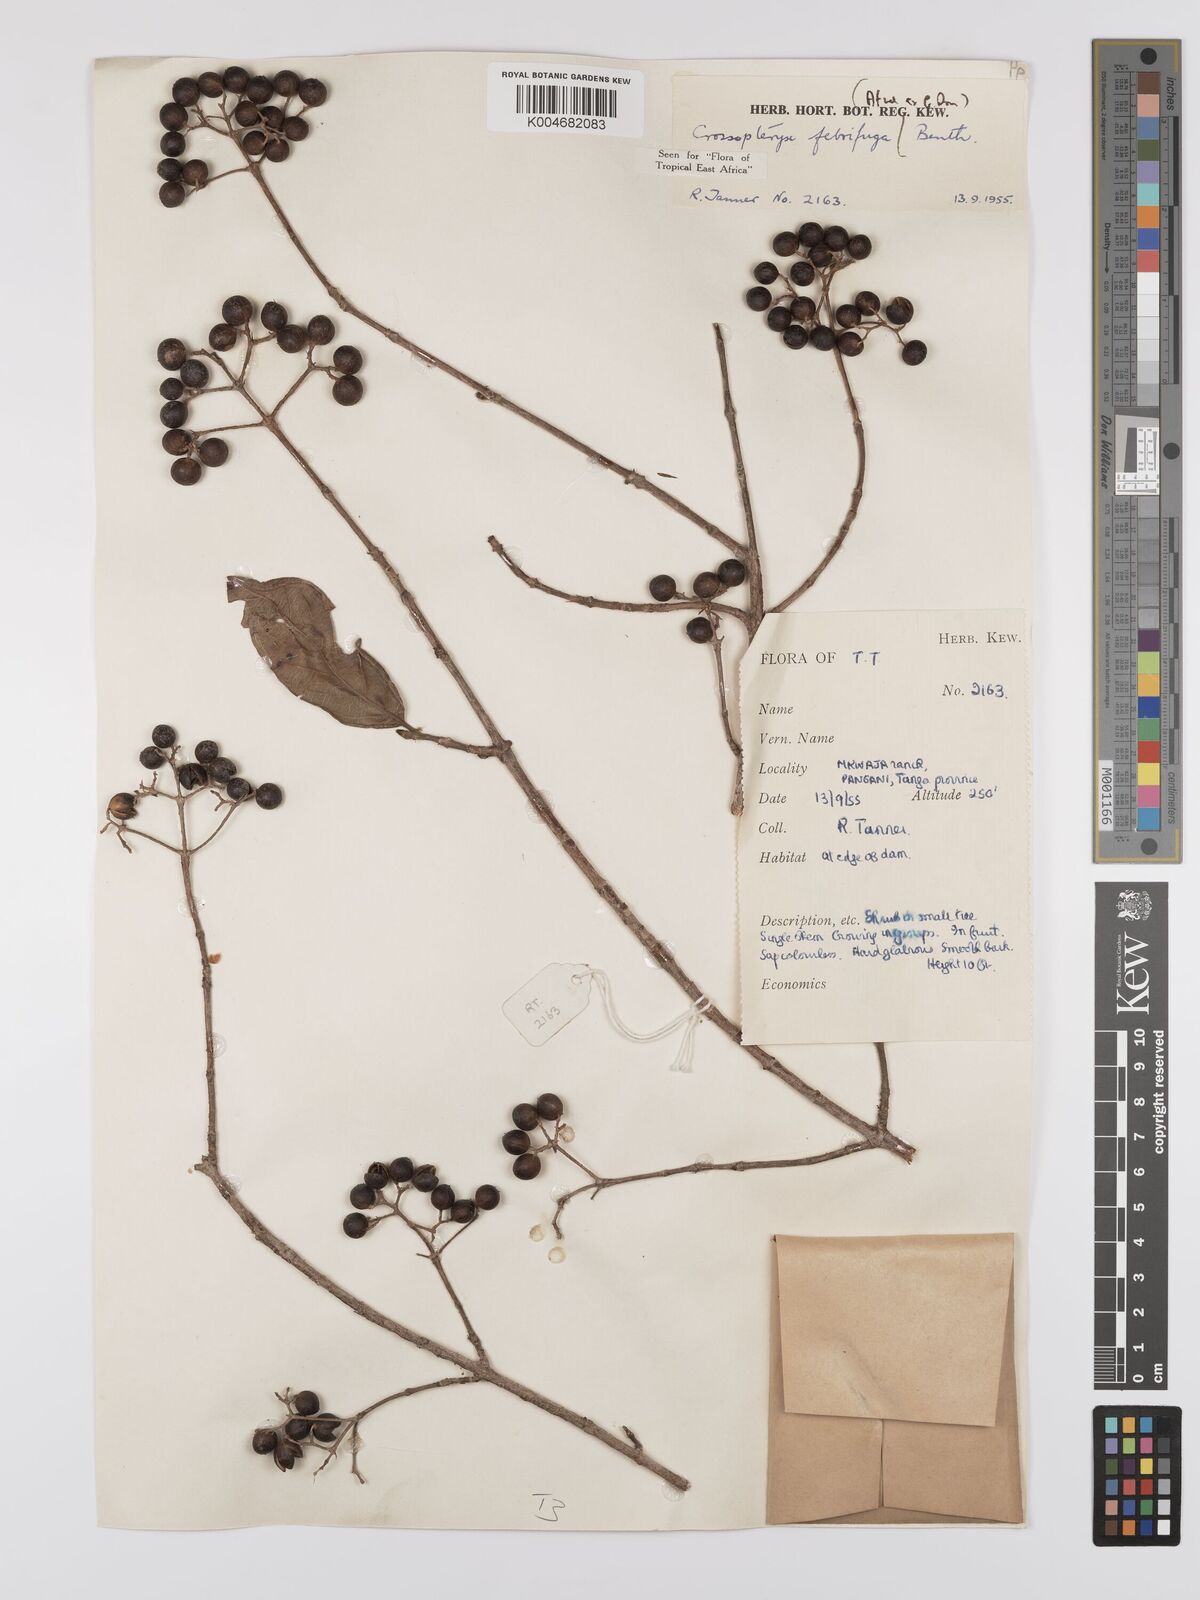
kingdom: Plantae
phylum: Tracheophyta
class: Magnoliopsida
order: Gentianales
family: Rubiaceae
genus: Crossopteryx
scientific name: Crossopteryx febrifuga
